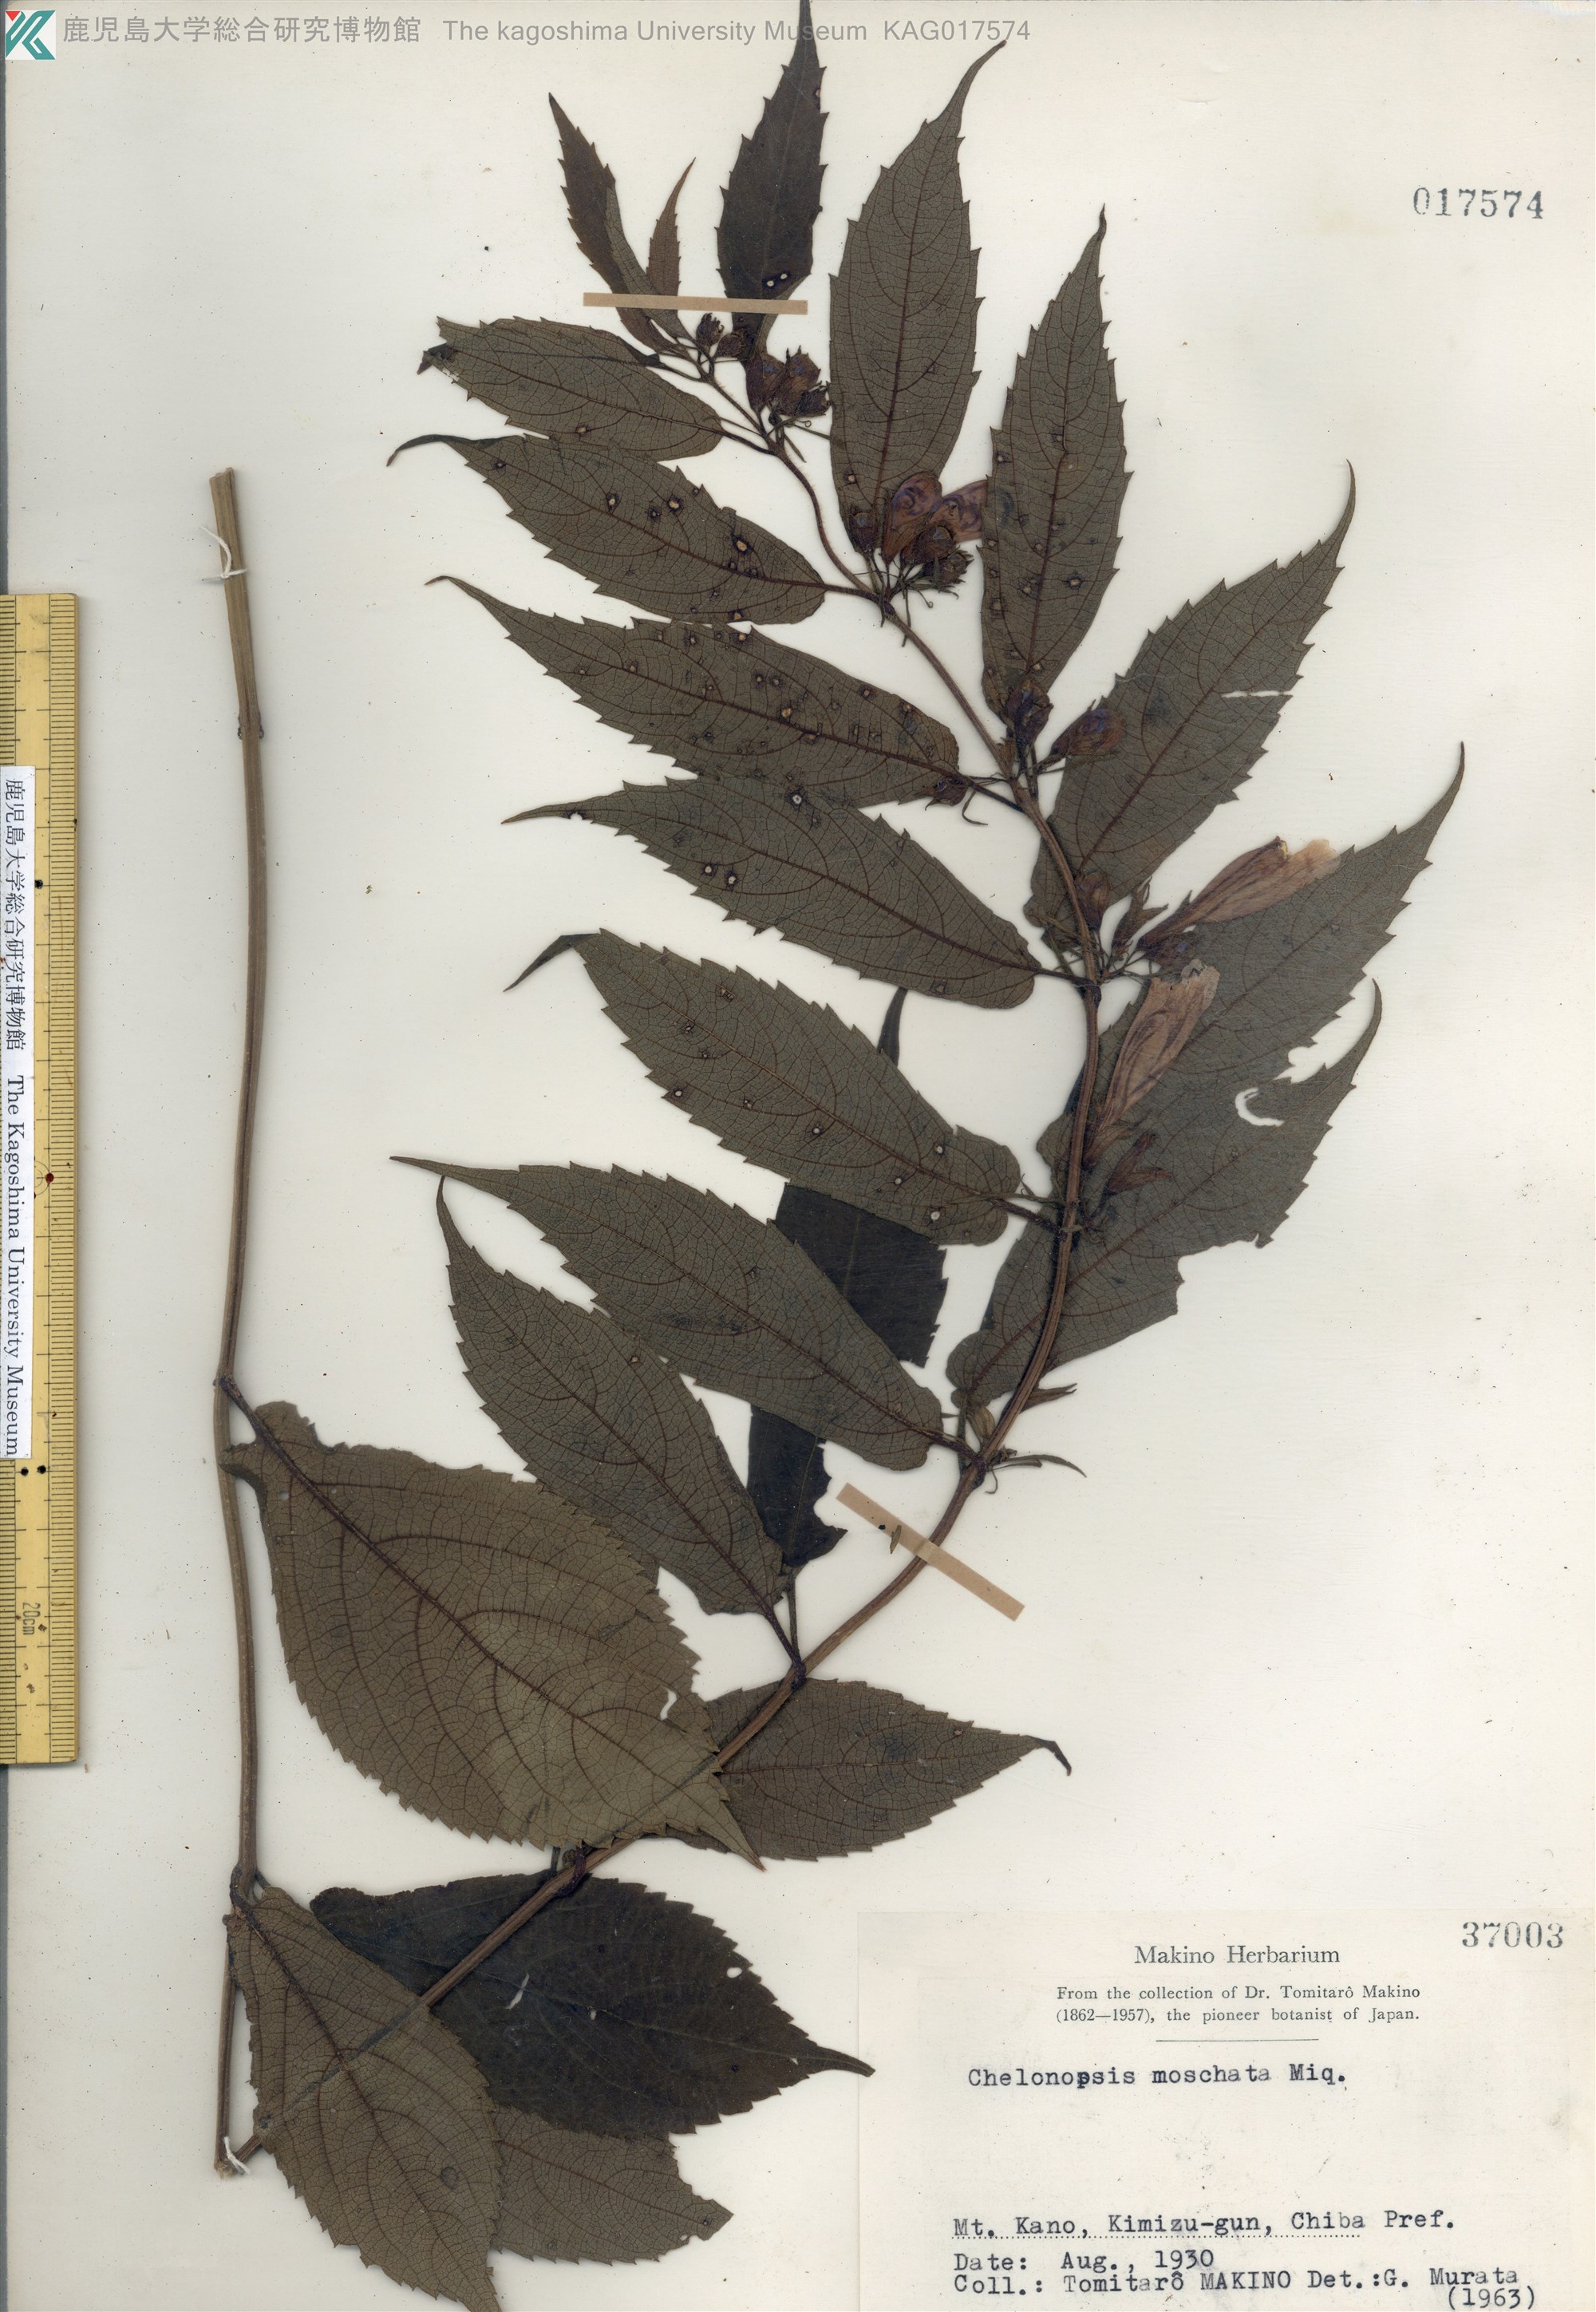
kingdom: Plantae
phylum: Tracheophyta
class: Magnoliopsida
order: Lamiales
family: Lamiaceae
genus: Chelonopsis
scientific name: Chelonopsis moschata
